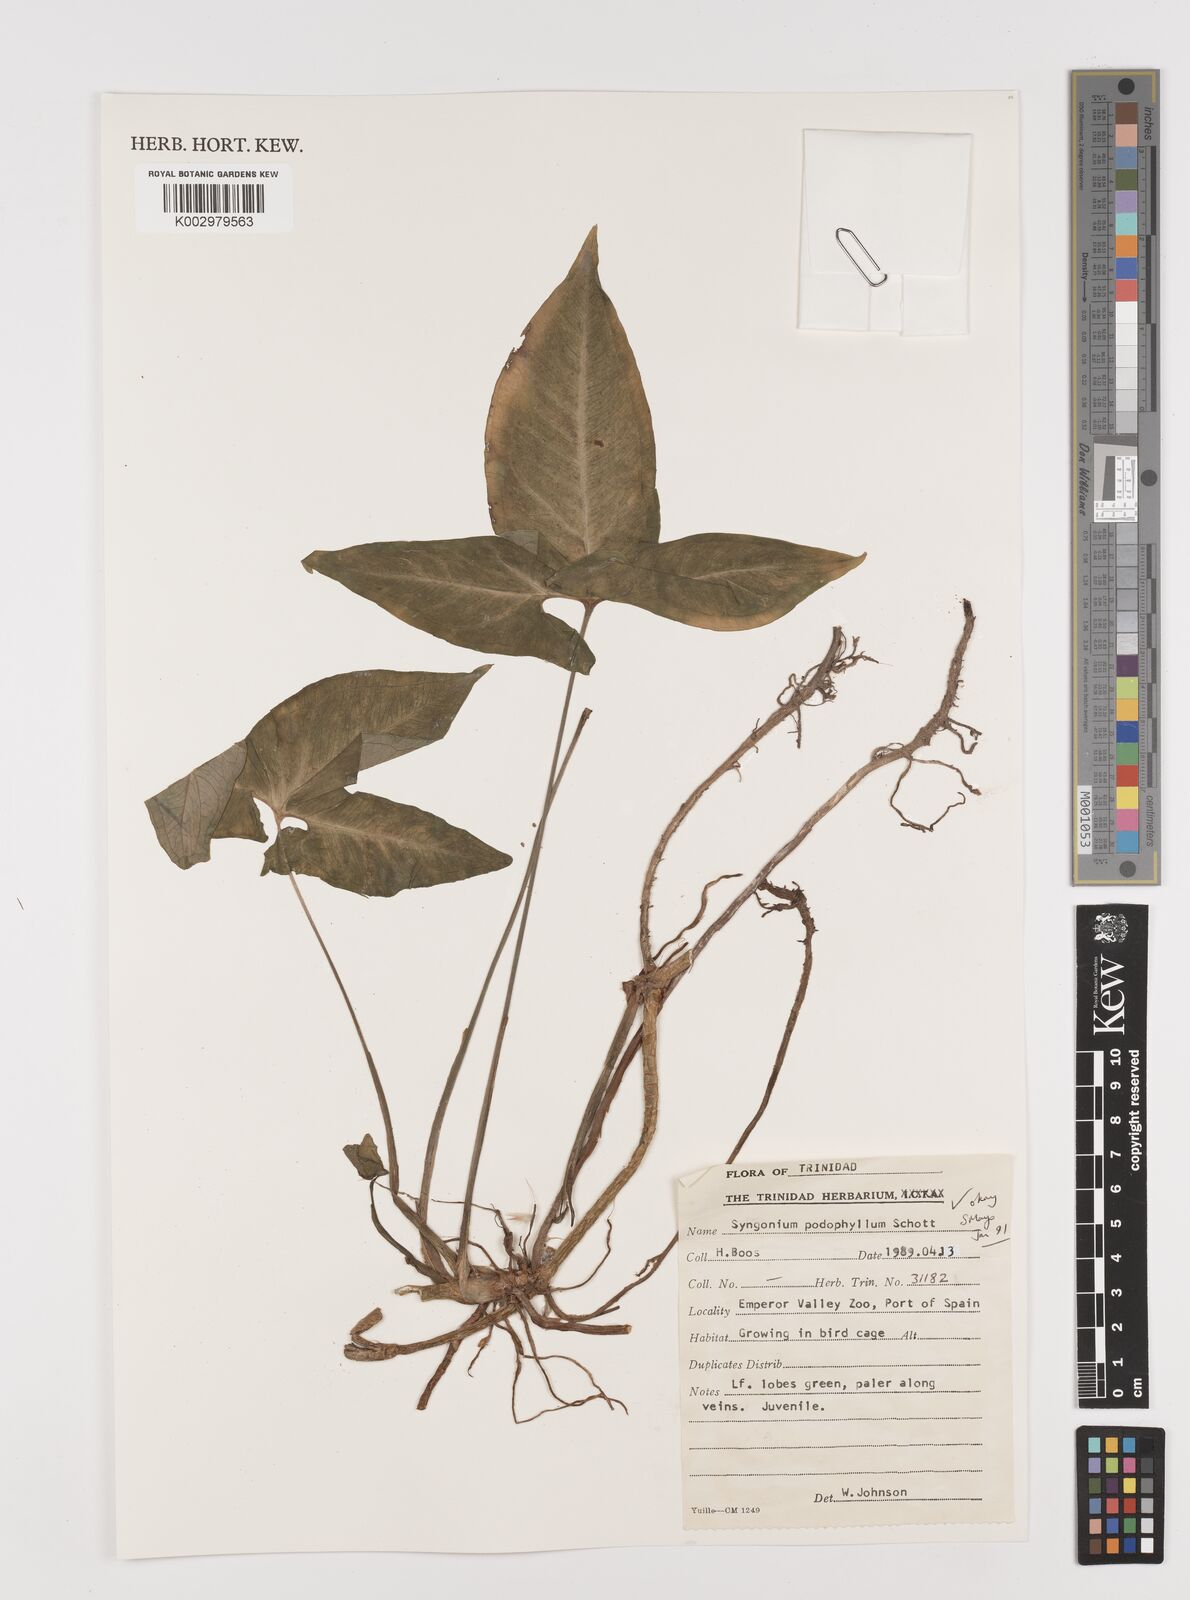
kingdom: Plantae
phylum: Tracheophyta
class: Liliopsida
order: Alismatales
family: Araceae
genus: Syngonium
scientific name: Syngonium podophyllum
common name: American evergreen
